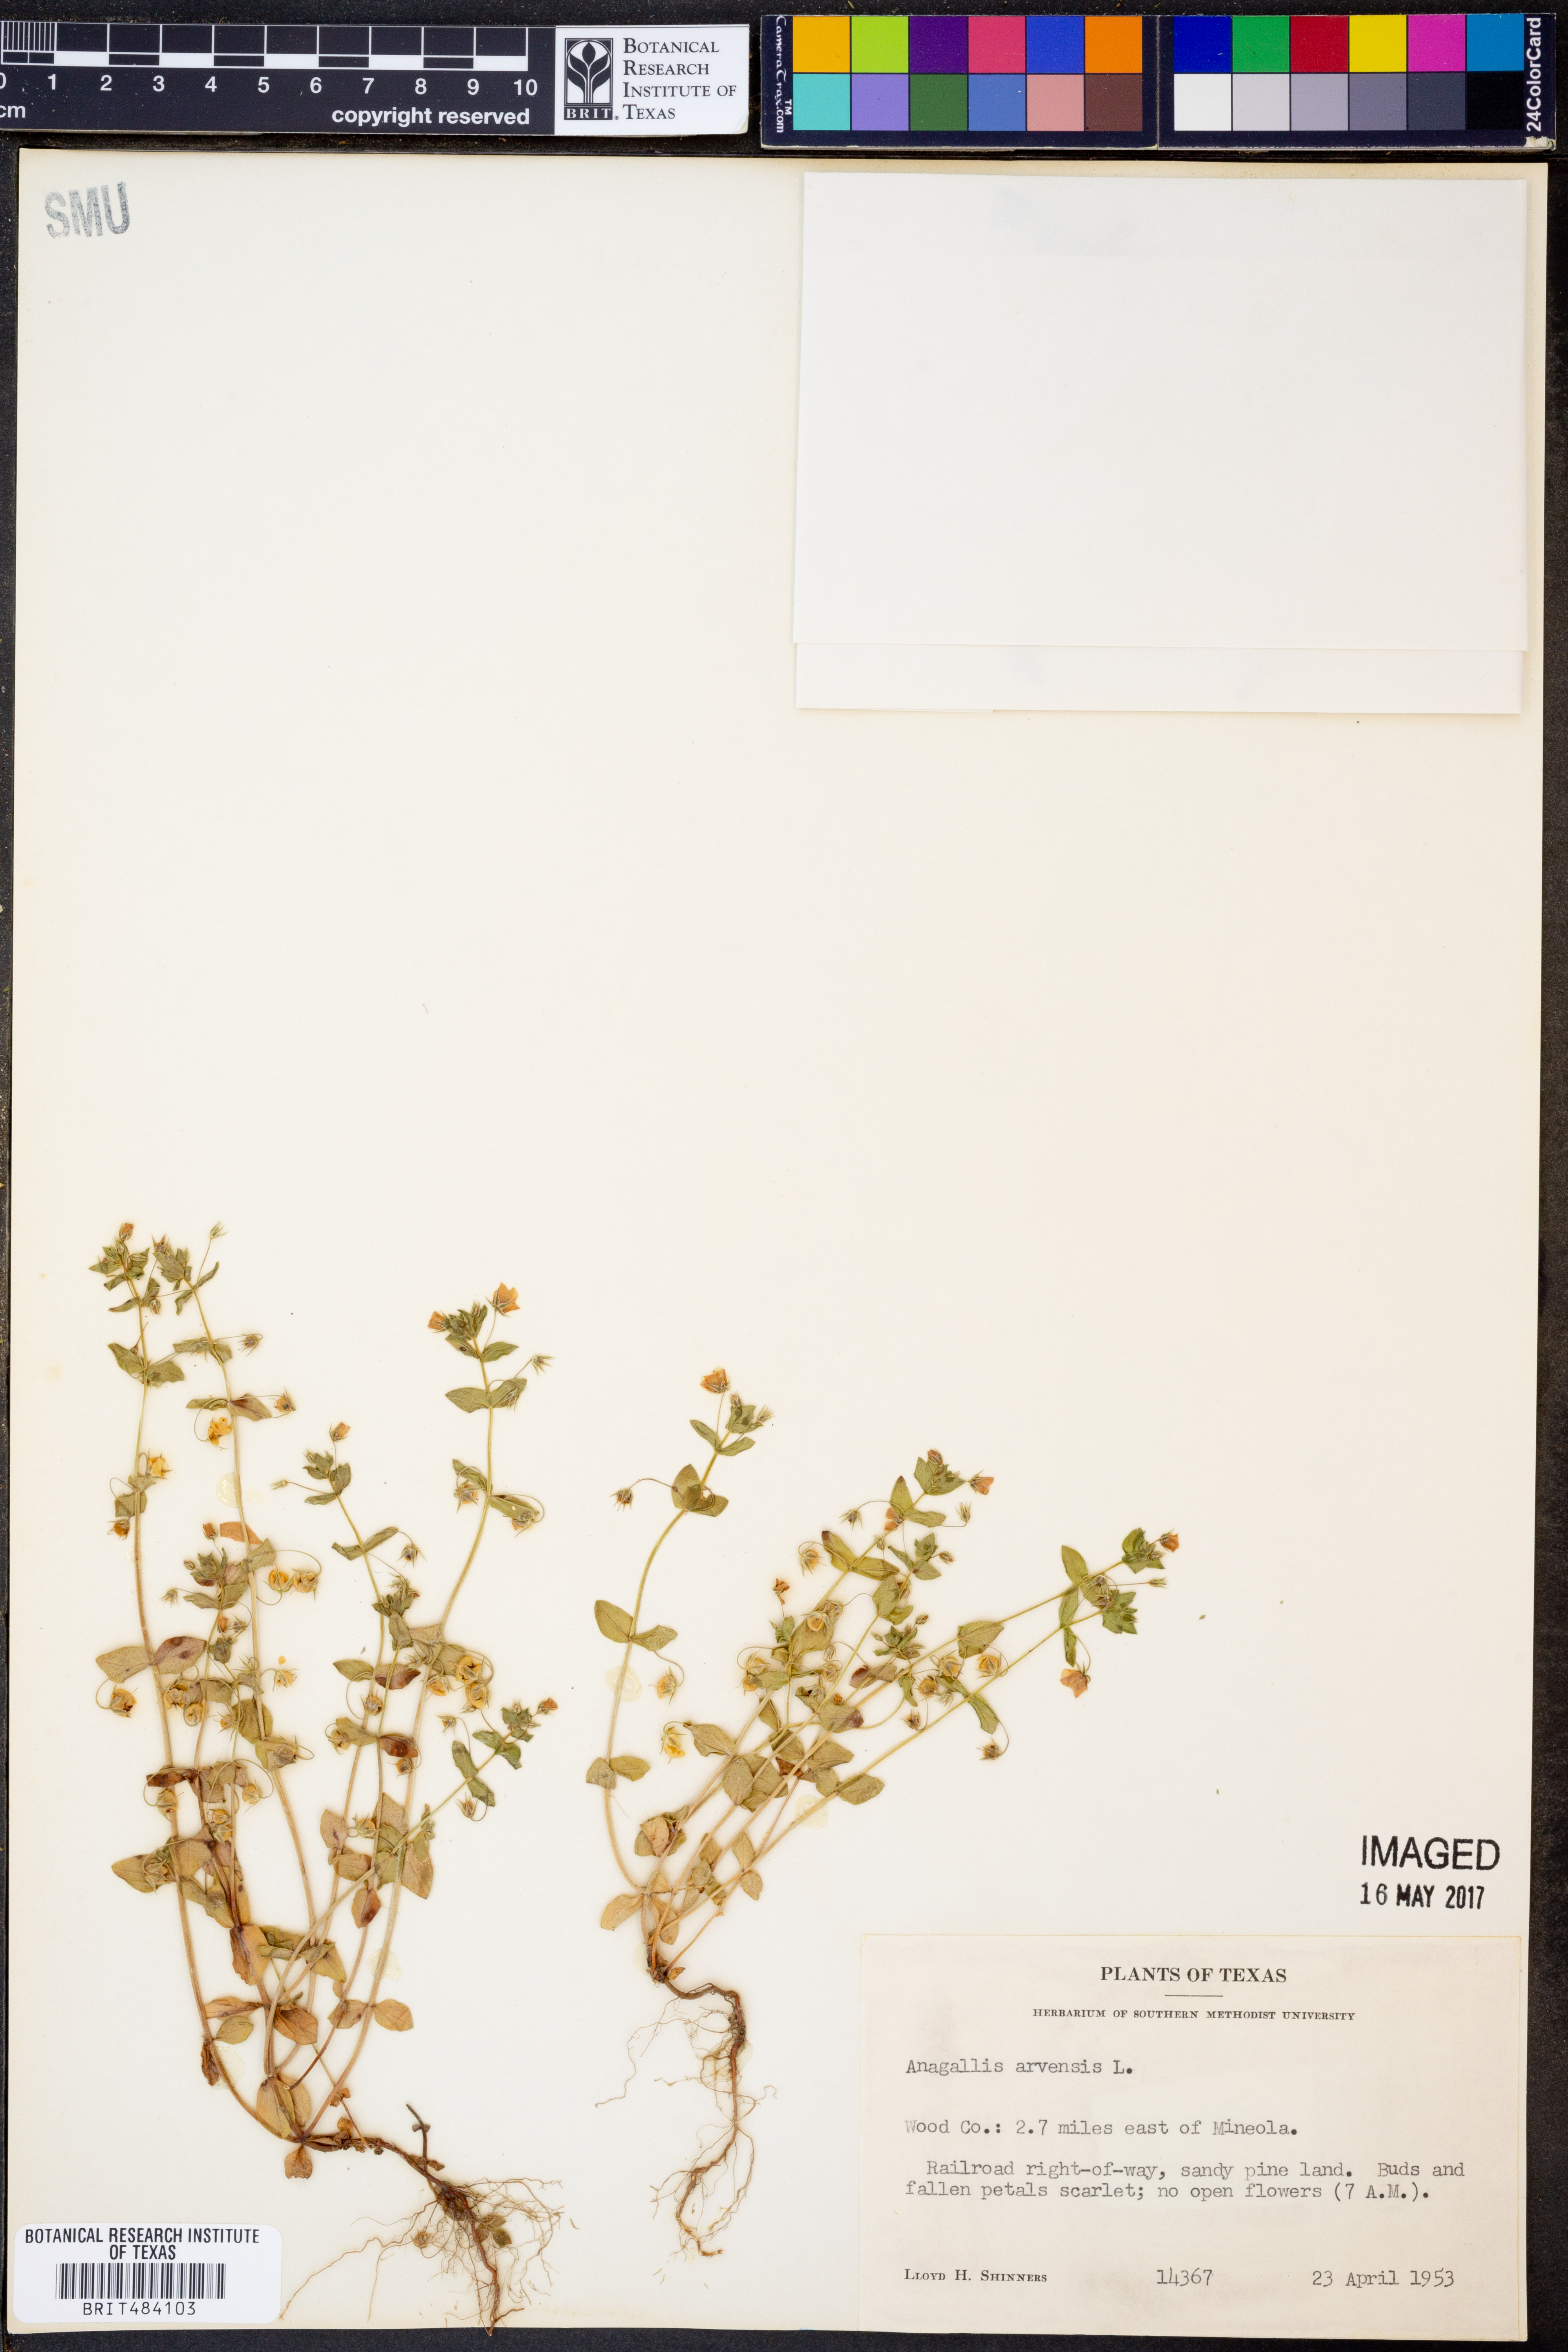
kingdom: Plantae
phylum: Tracheophyta
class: Magnoliopsida
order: Ericales
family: Primulaceae
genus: Lysimachia
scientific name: Lysimachia arvensis
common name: Scarlet pimpernel
